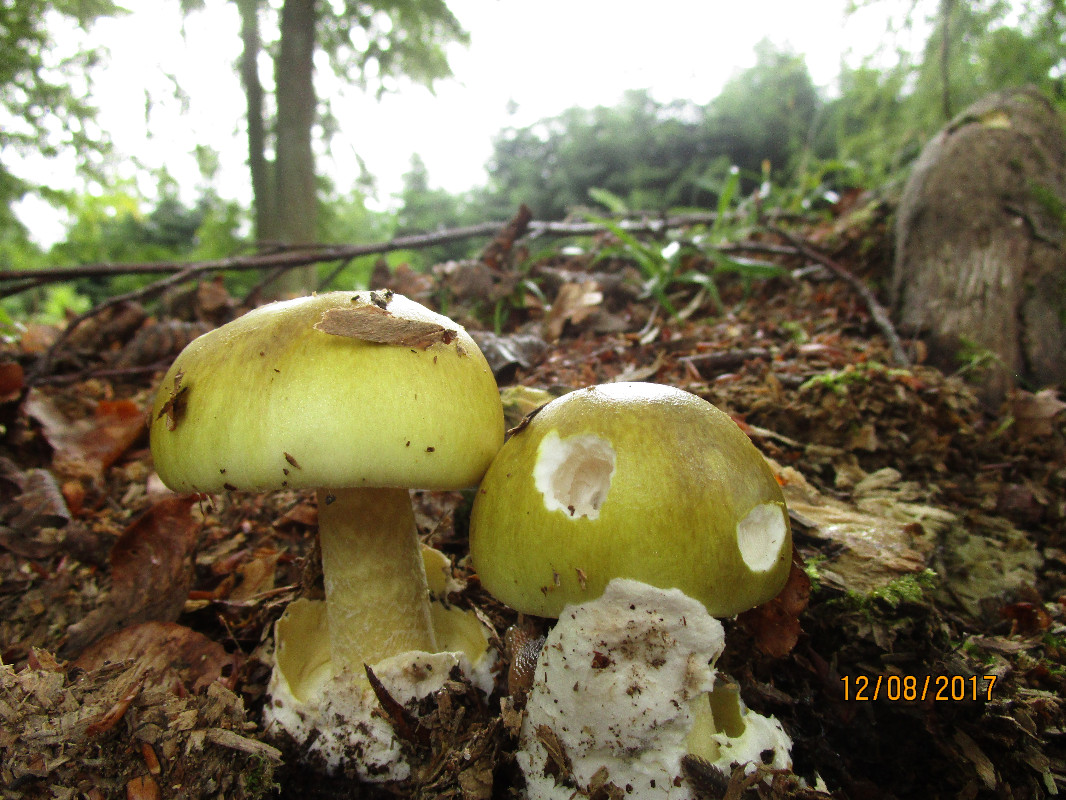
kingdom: Fungi
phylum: Basidiomycota
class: Agaricomycetes
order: Agaricales
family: Amanitaceae
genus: Amanita
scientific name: Amanita phalloides
